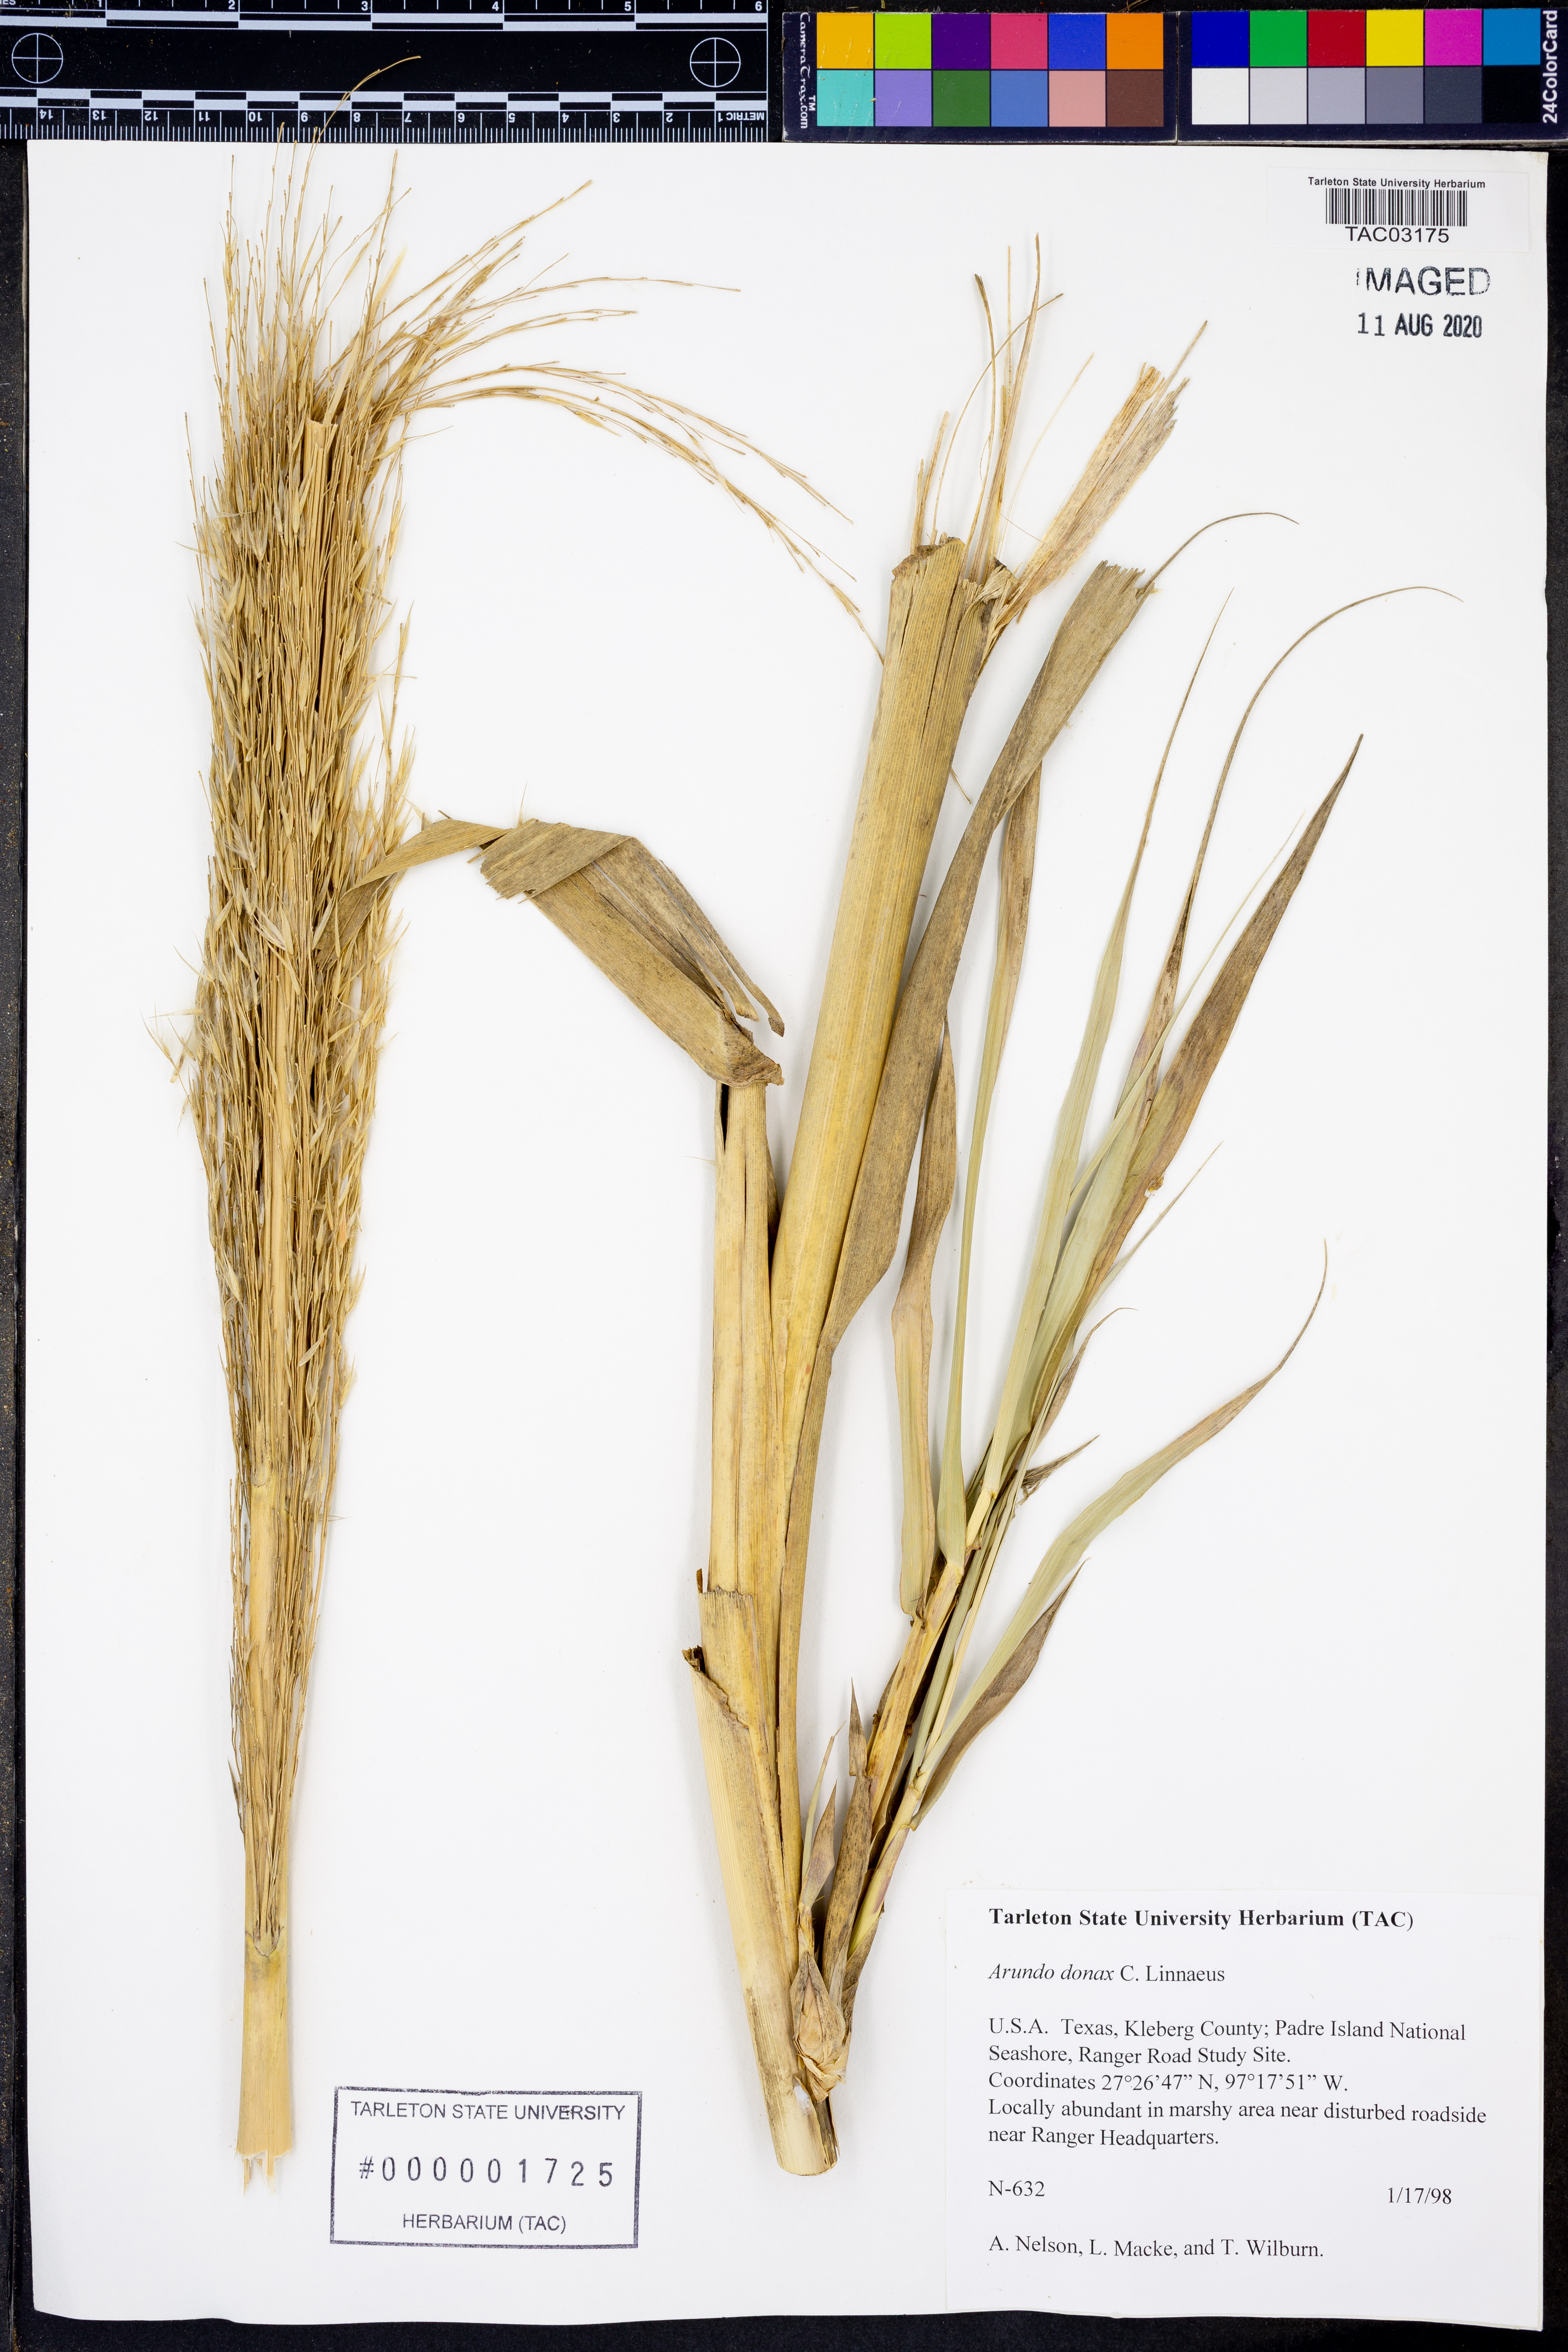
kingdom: Plantae
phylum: Tracheophyta
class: Liliopsida
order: Poales
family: Poaceae
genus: Arundo
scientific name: Arundo donax
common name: Giant reed
